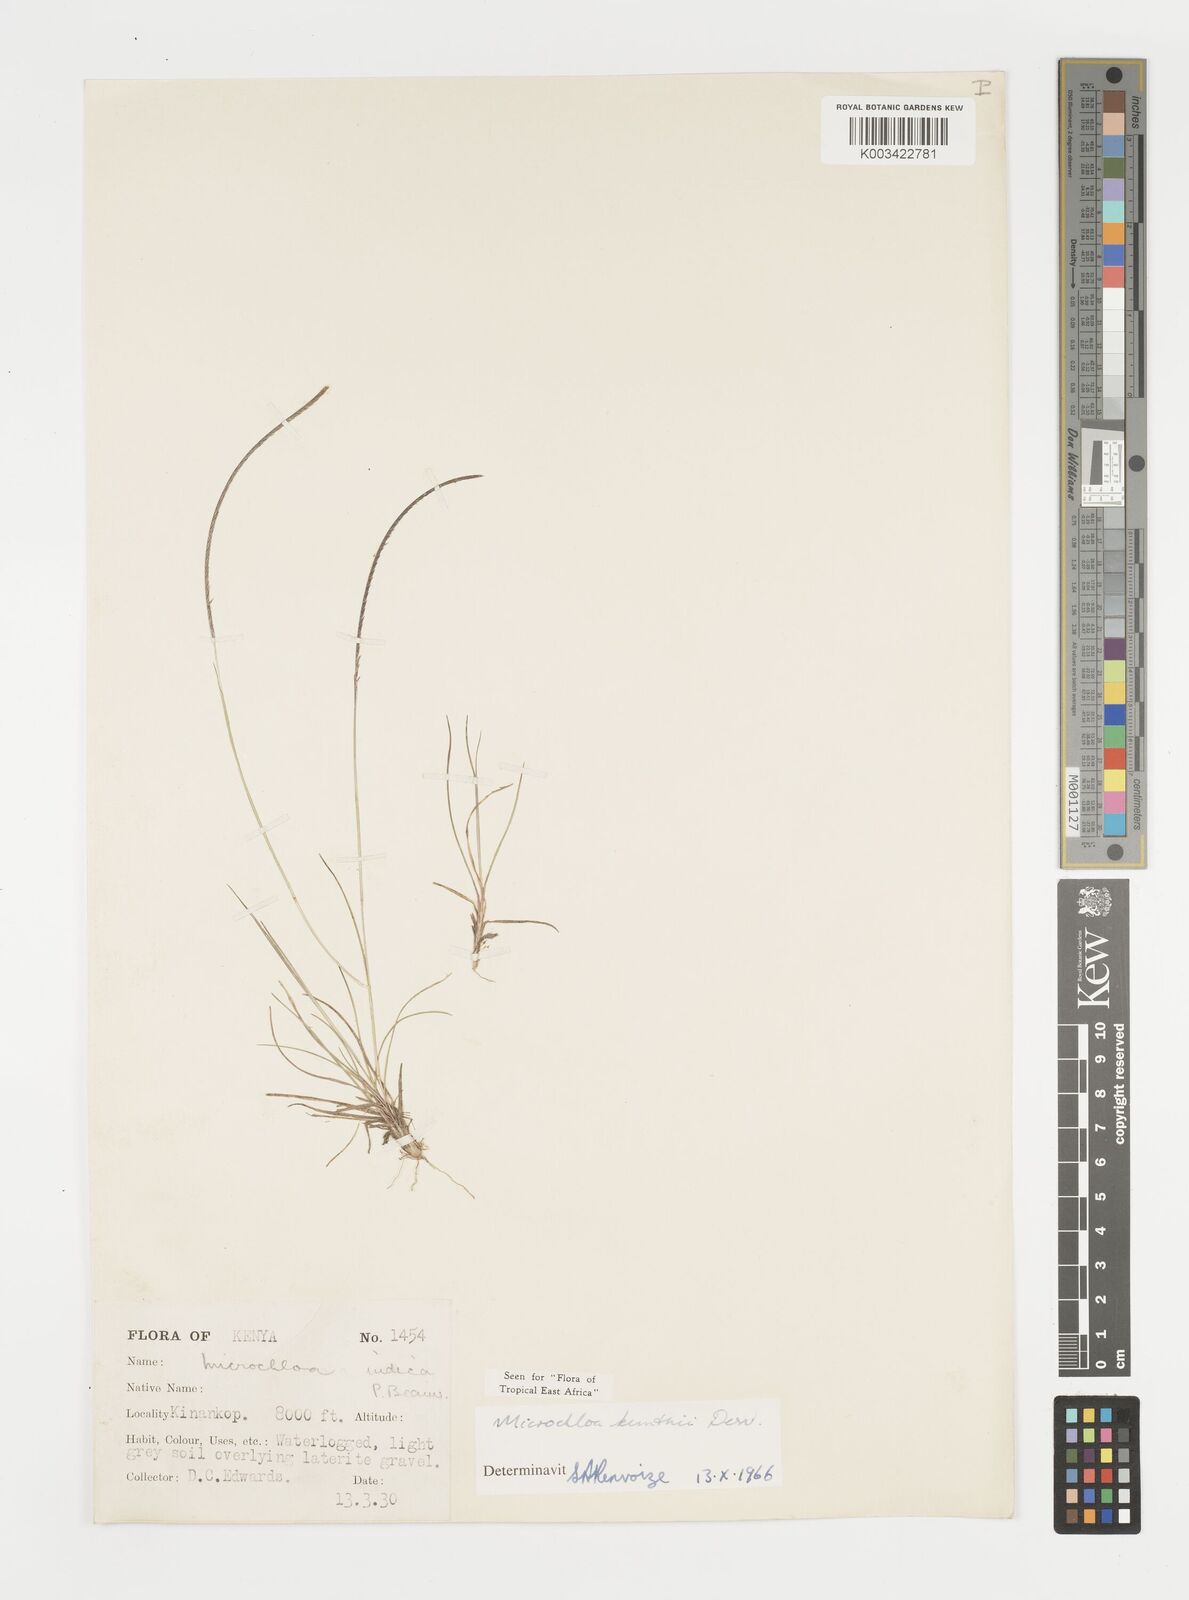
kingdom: Plantae
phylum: Tracheophyta
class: Liliopsida
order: Poales
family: Poaceae
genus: Microchloa
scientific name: Microchloa kunthii
